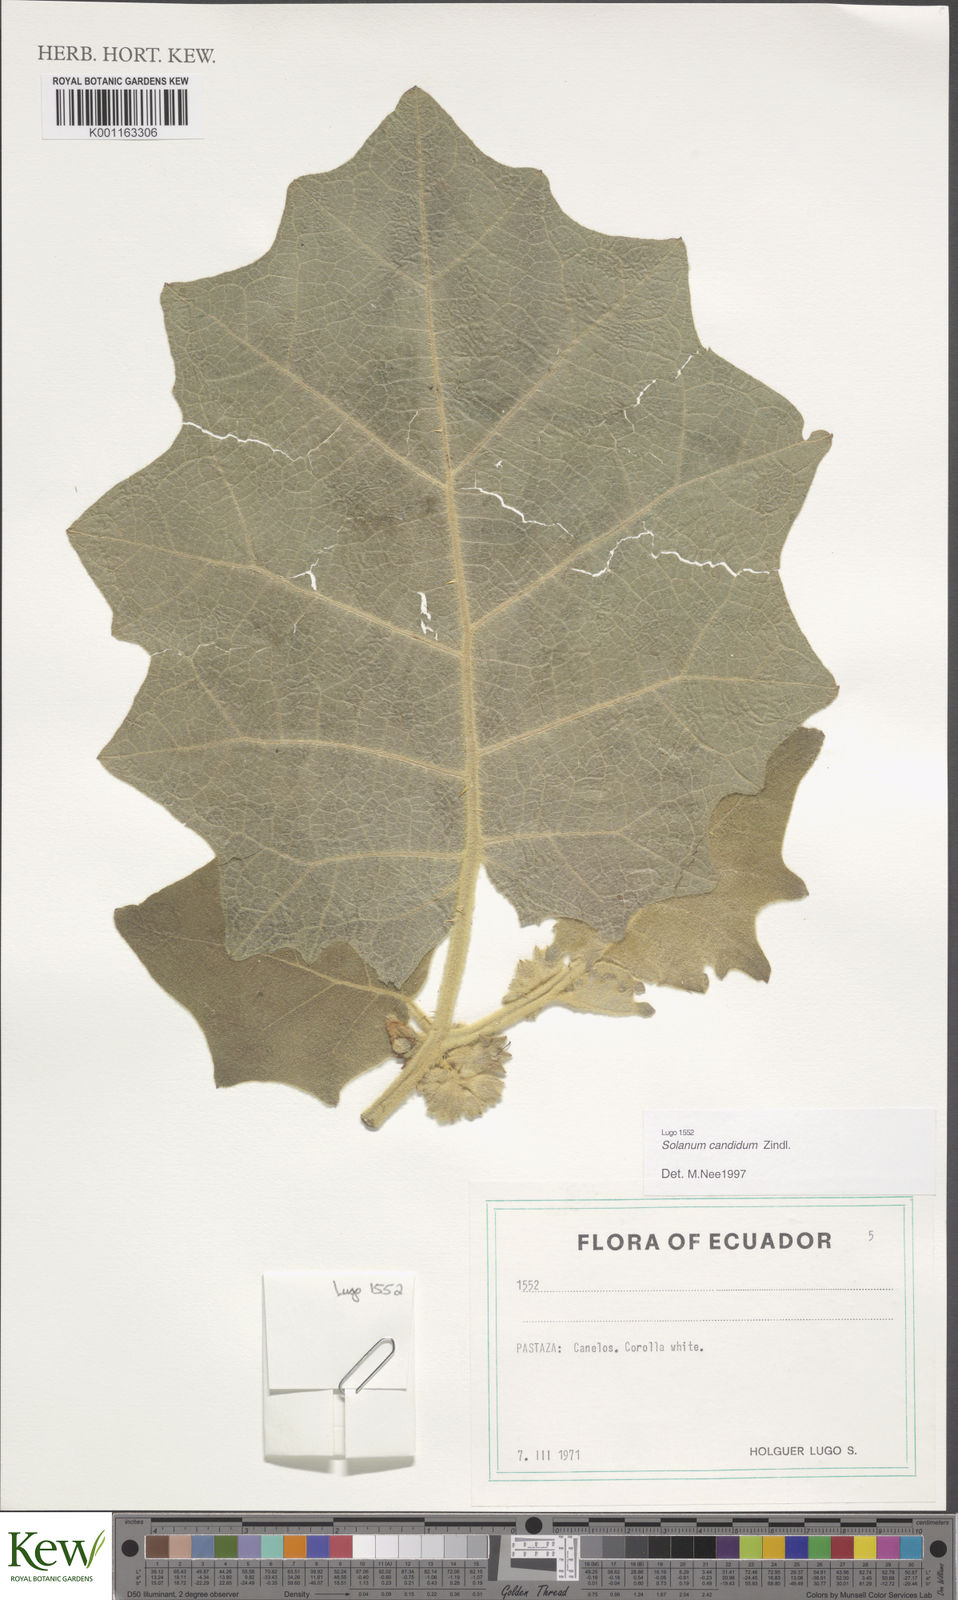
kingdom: Plantae
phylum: Tracheophyta
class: Magnoliopsida
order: Solanales
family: Solanaceae
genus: Solanum
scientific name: Solanum candidum
